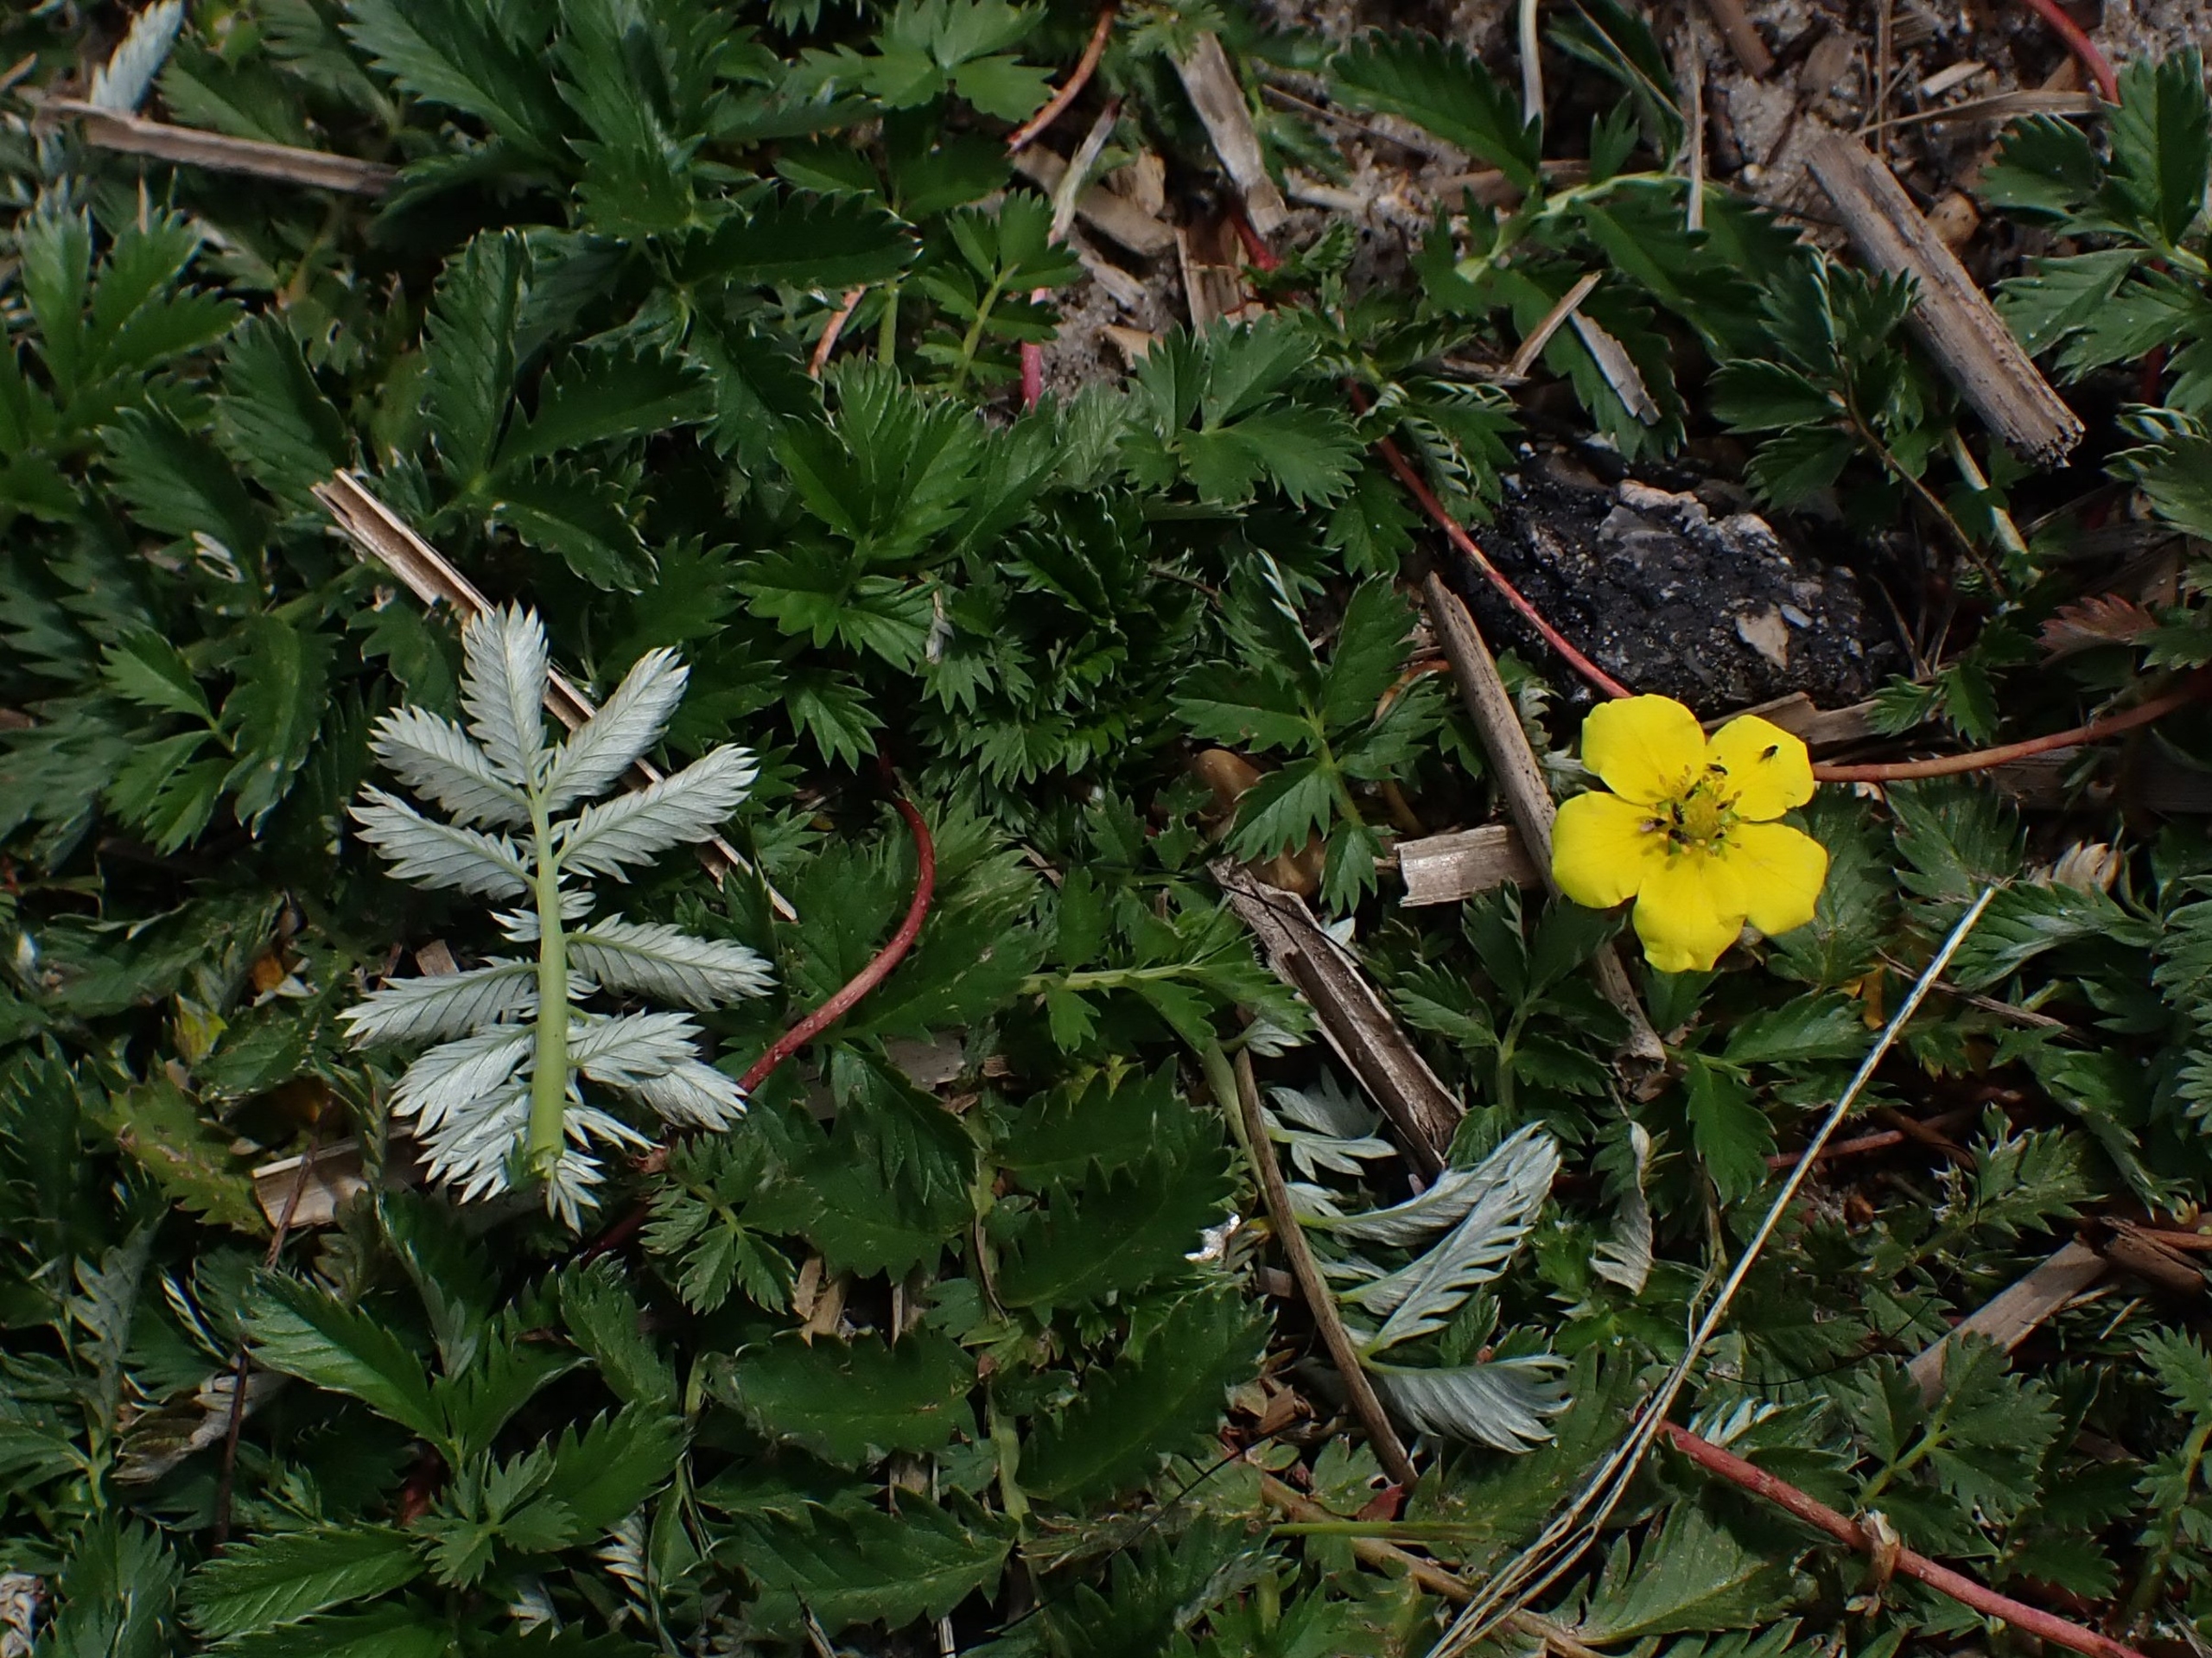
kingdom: Plantae
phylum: Tracheophyta
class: Magnoliopsida
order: Rosales
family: Rosaceae
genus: Argentina
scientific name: Argentina anserina
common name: Gåsepotentil
